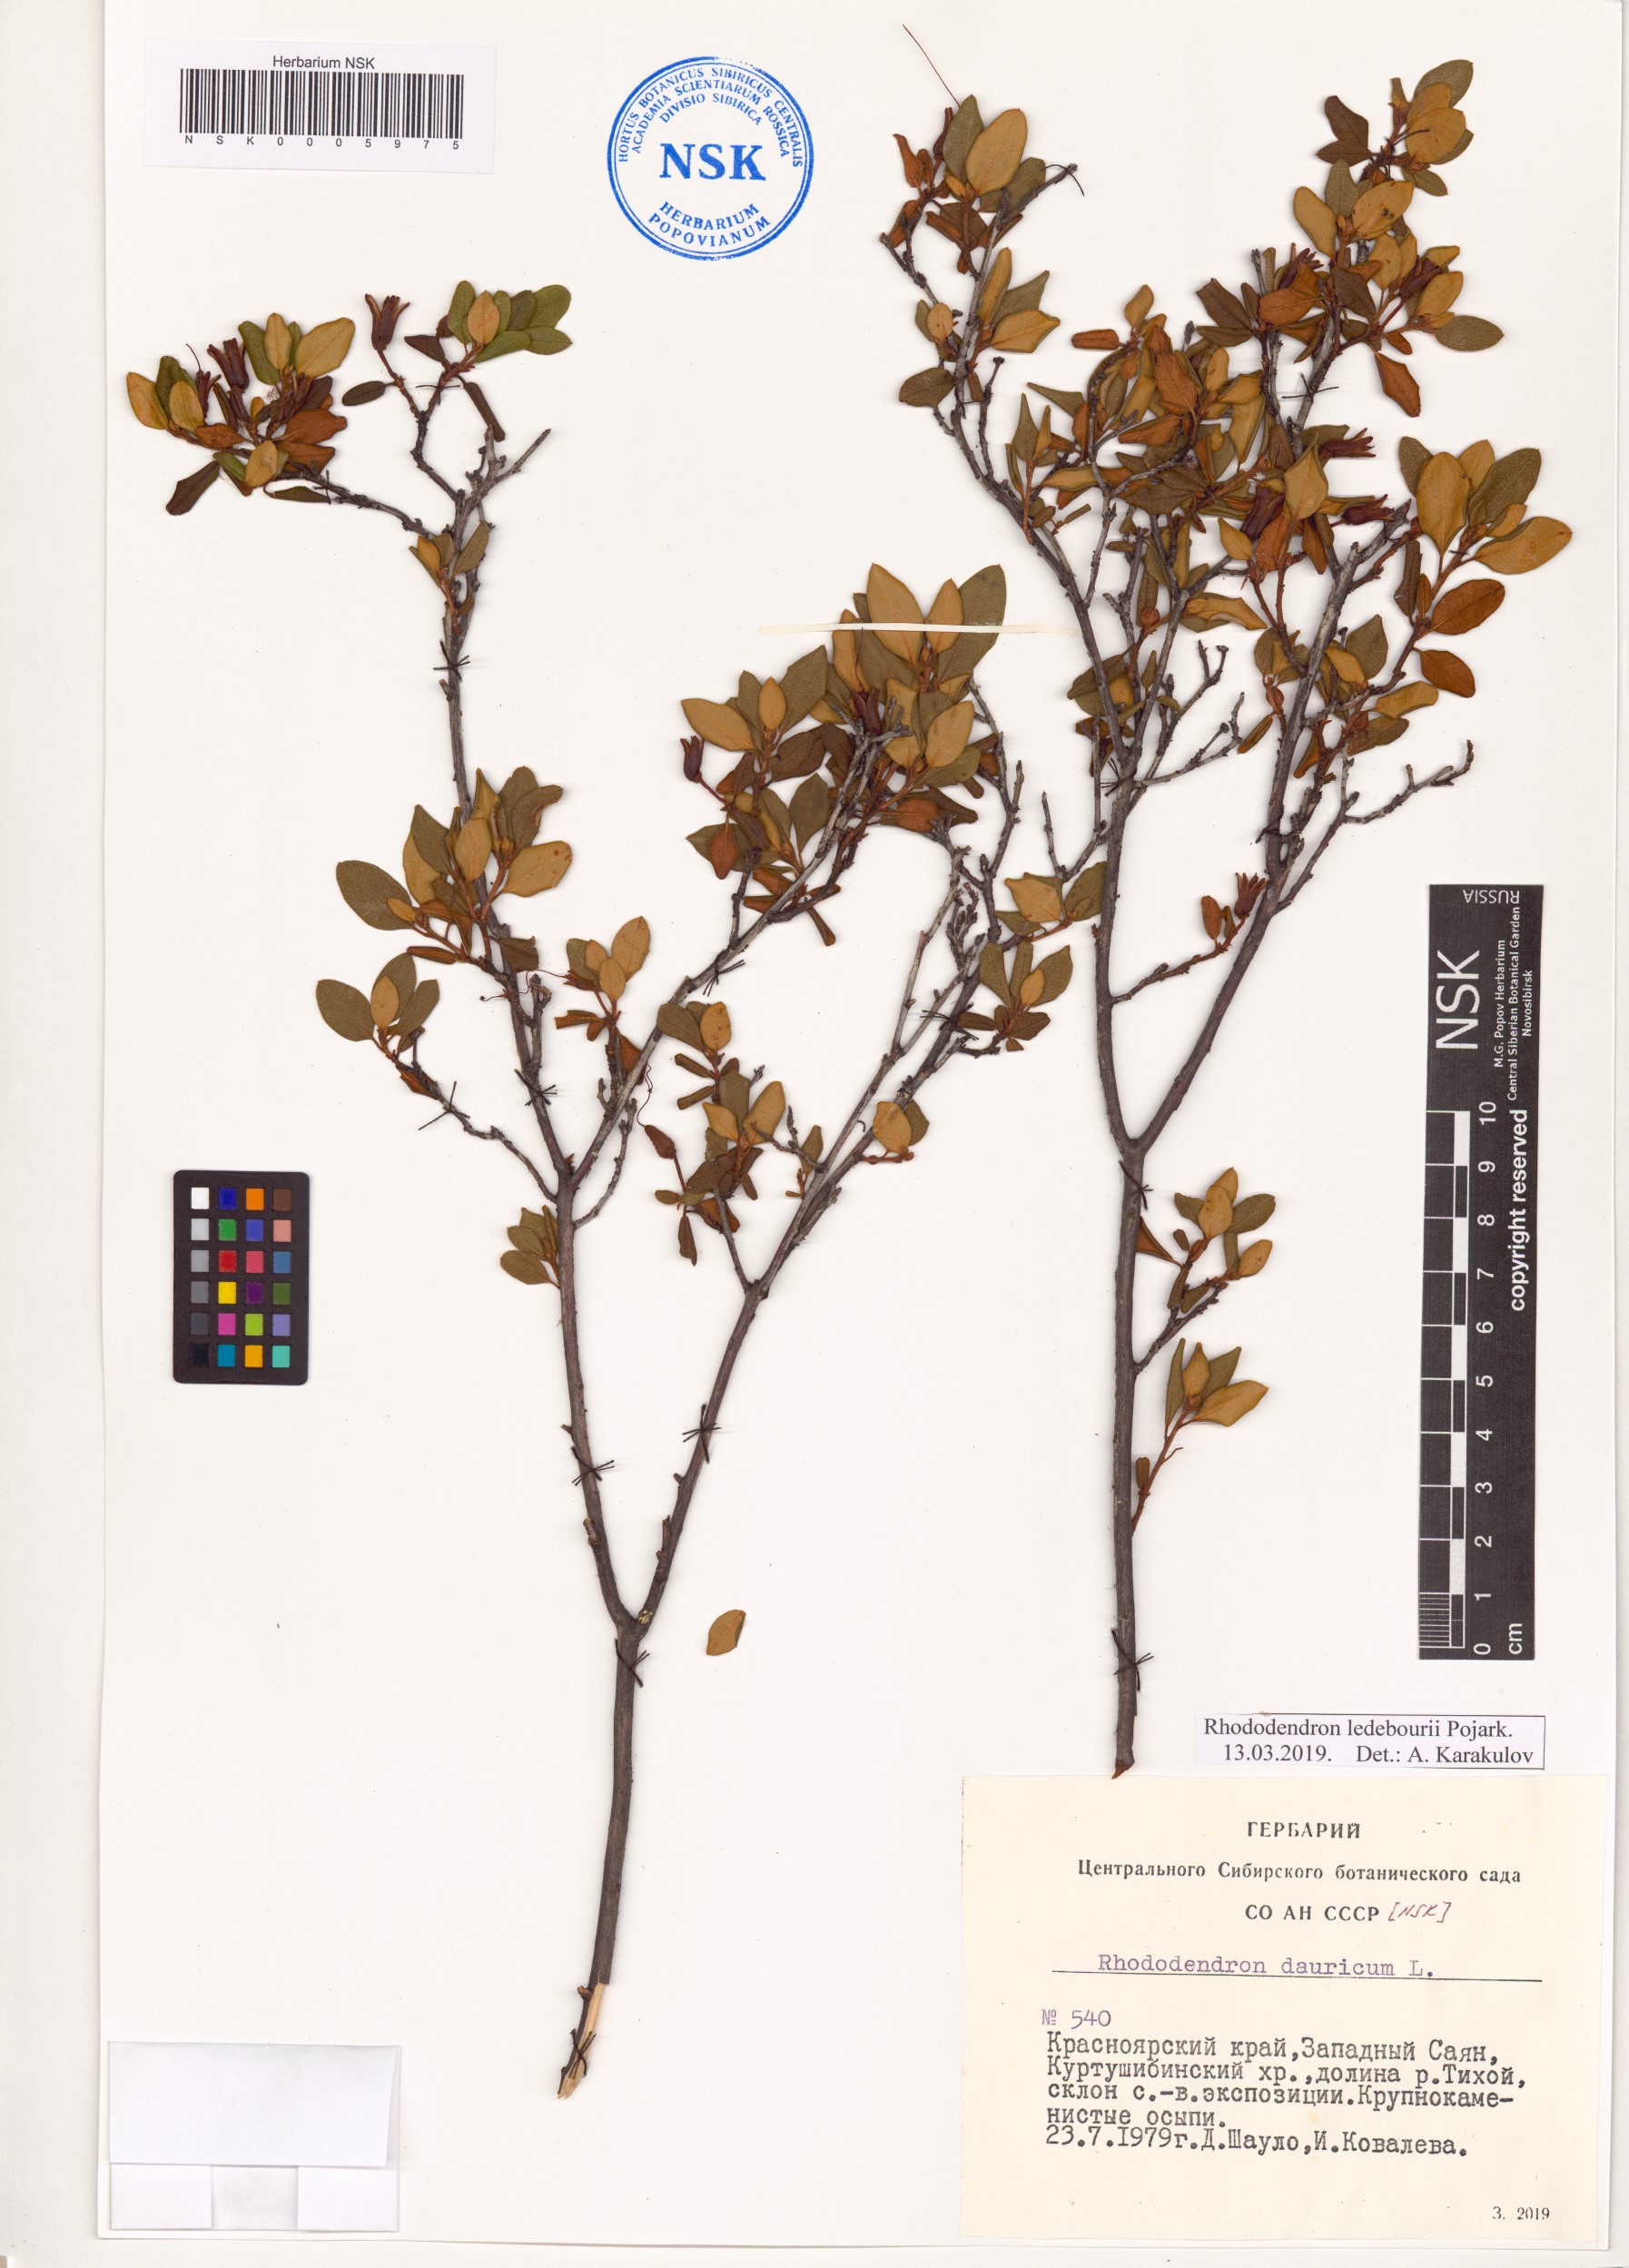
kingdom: Plantae
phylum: Tracheophyta
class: Magnoliopsida
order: Ericales
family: Ericaceae
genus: Rhododendron
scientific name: Rhododendron dauricum
